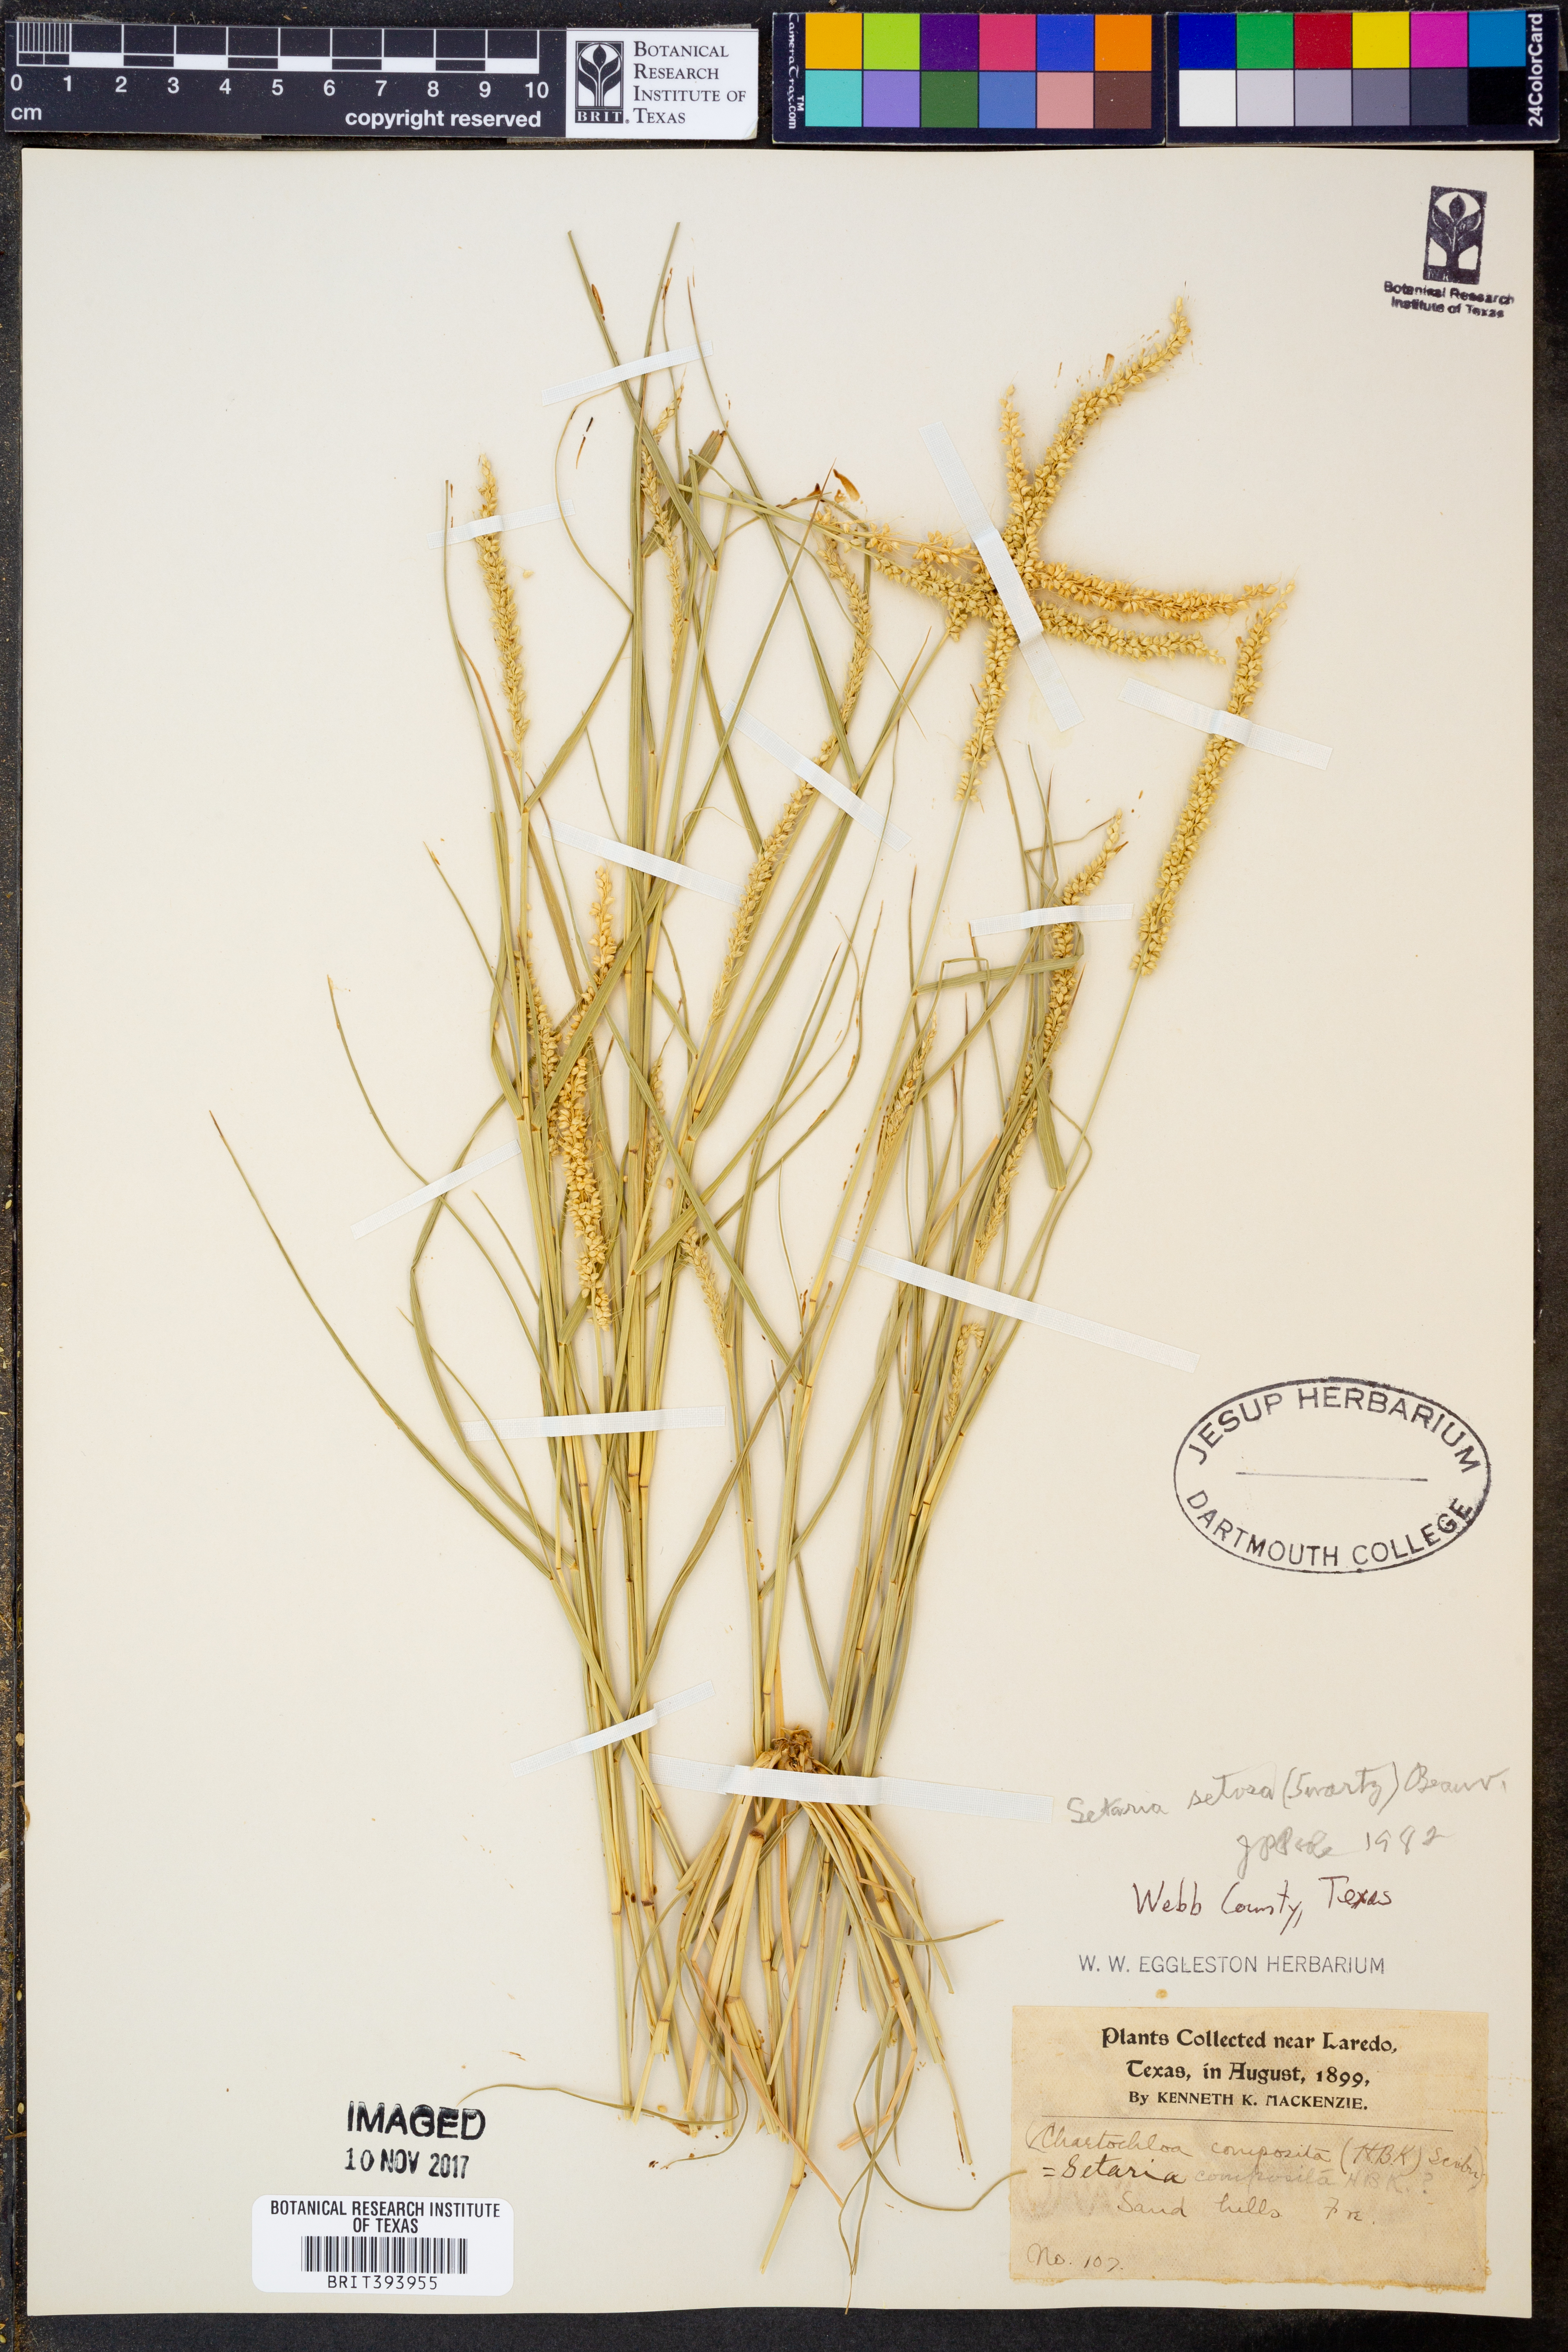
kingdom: Plantae
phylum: Tracheophyta
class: Liliopsida
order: Poales
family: Poaceae
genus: Setaria
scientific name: Setaria setosa
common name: West indies bristle grass
